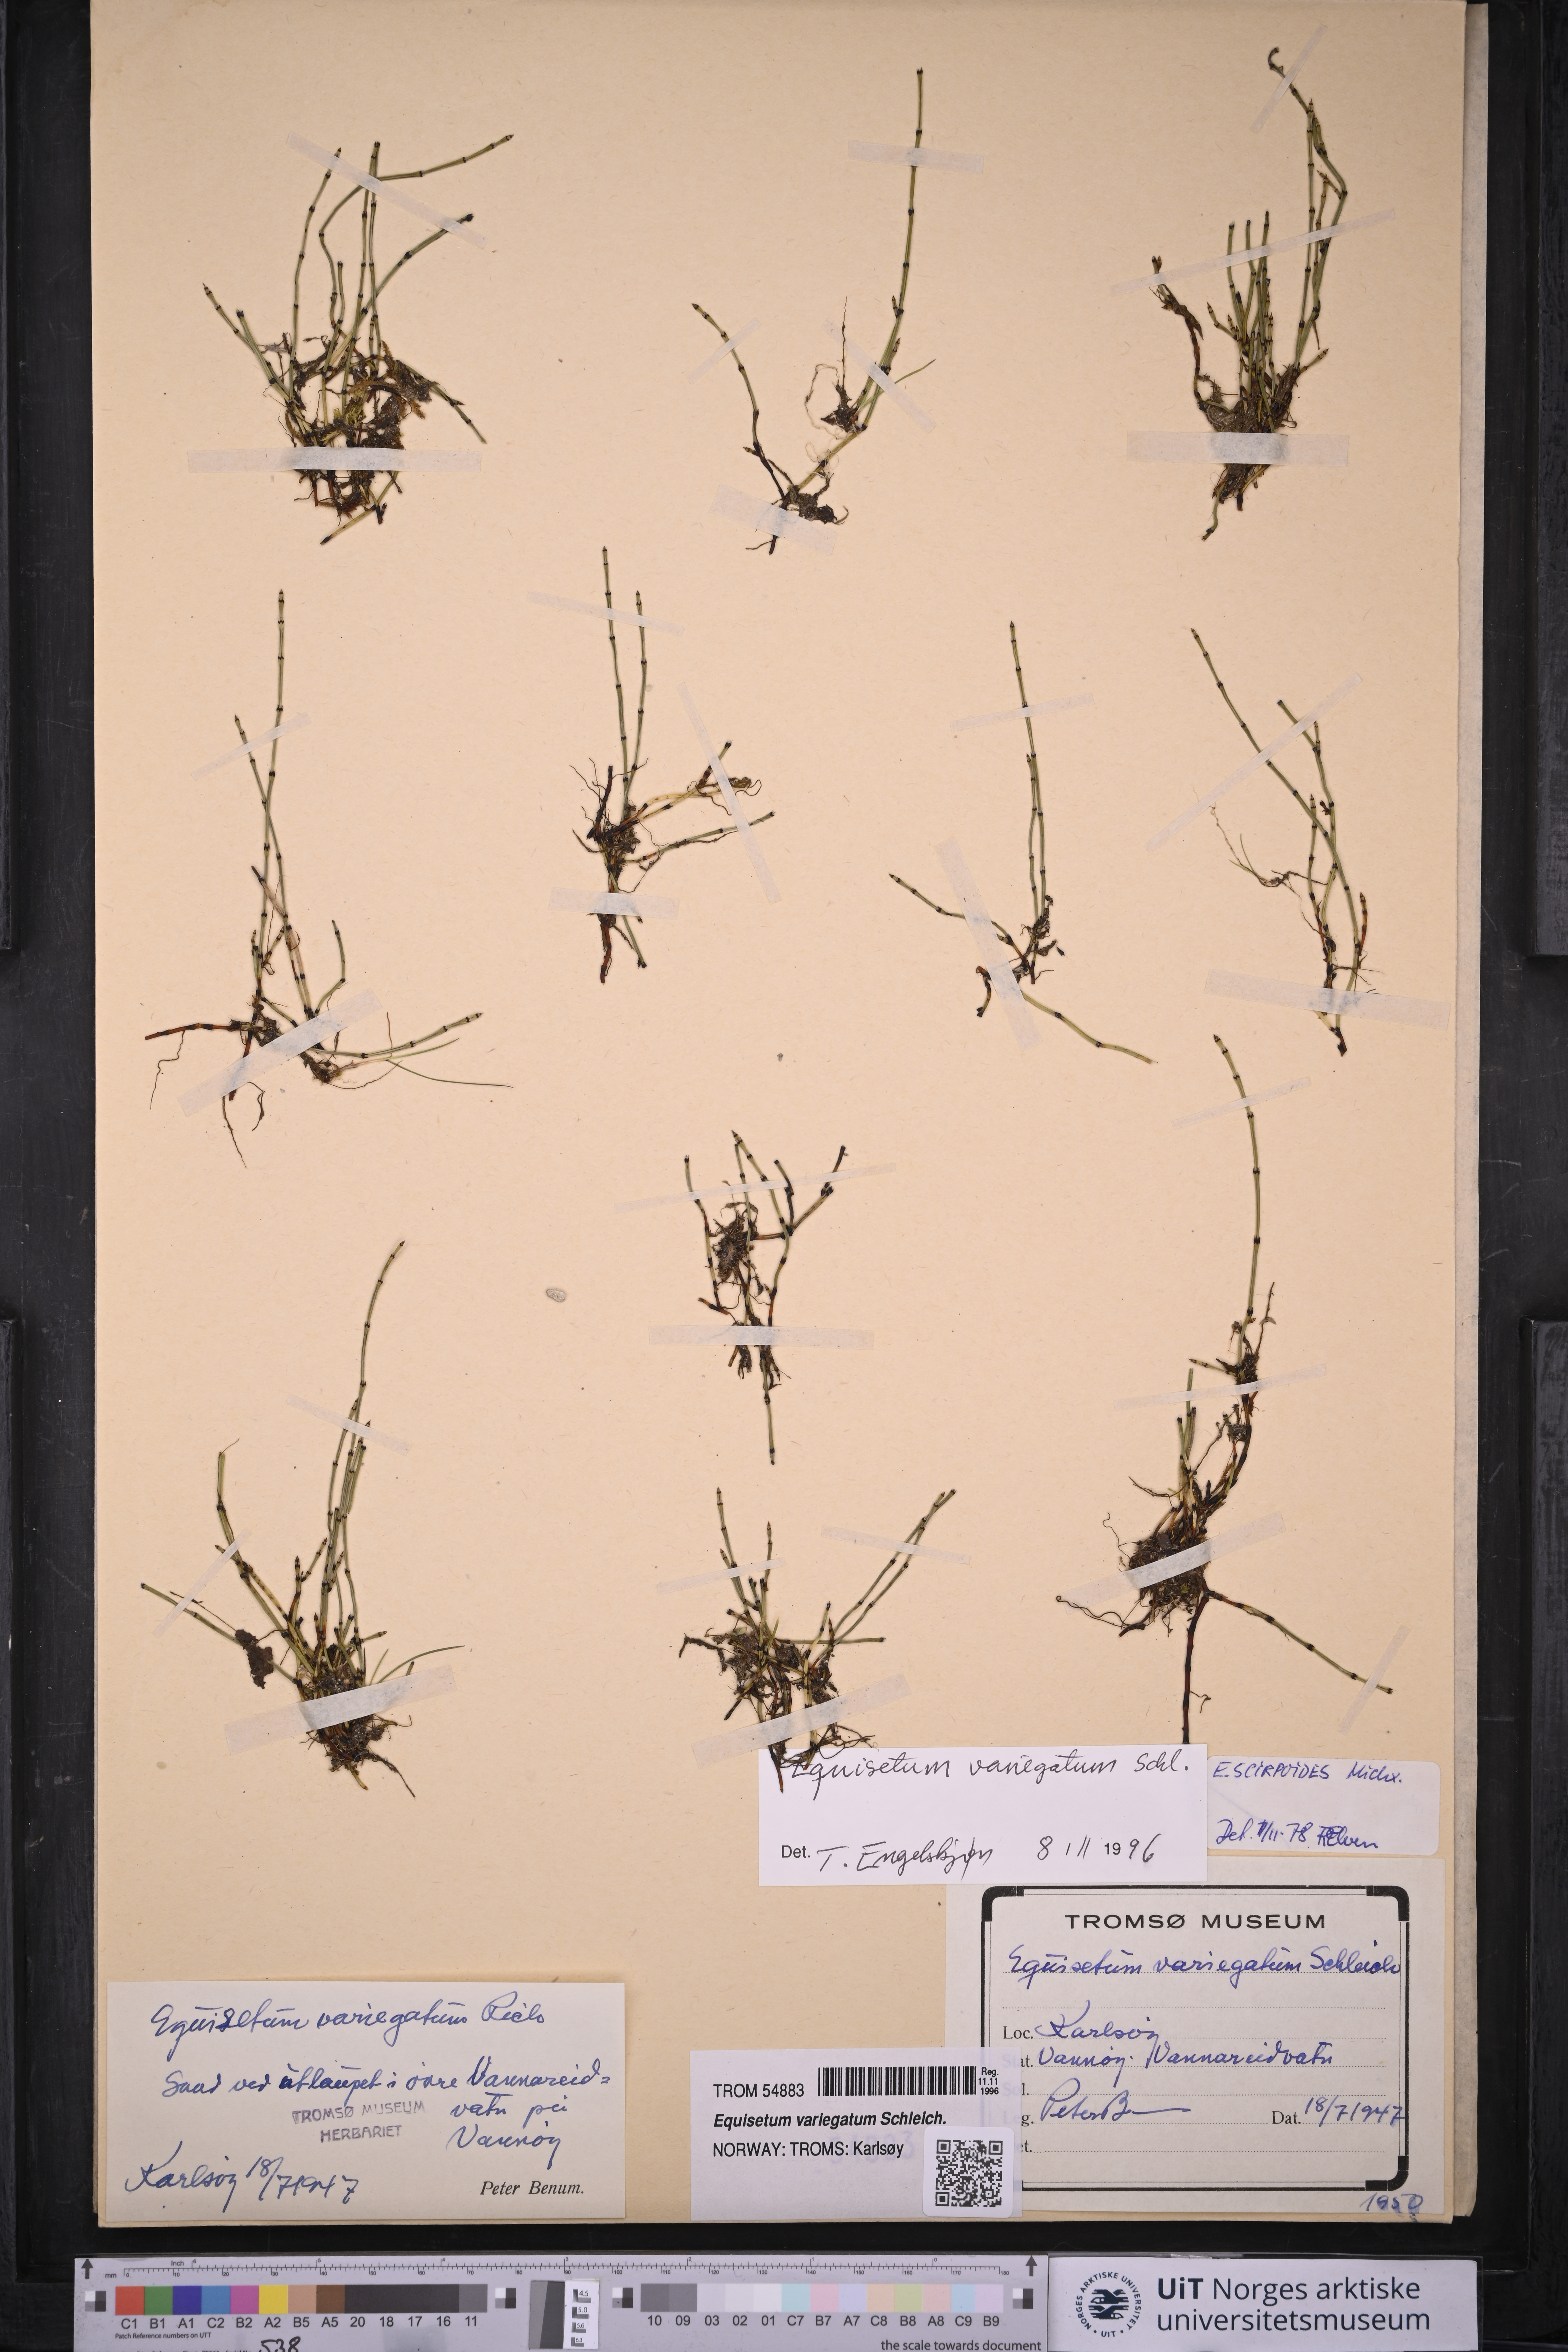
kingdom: Plantae
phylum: Tracheophyta
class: Polypodiopsida
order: Equisetales
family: Equisetaceae
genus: Equisetum
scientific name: Equisetum variegatum
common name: Variegated horsetail
